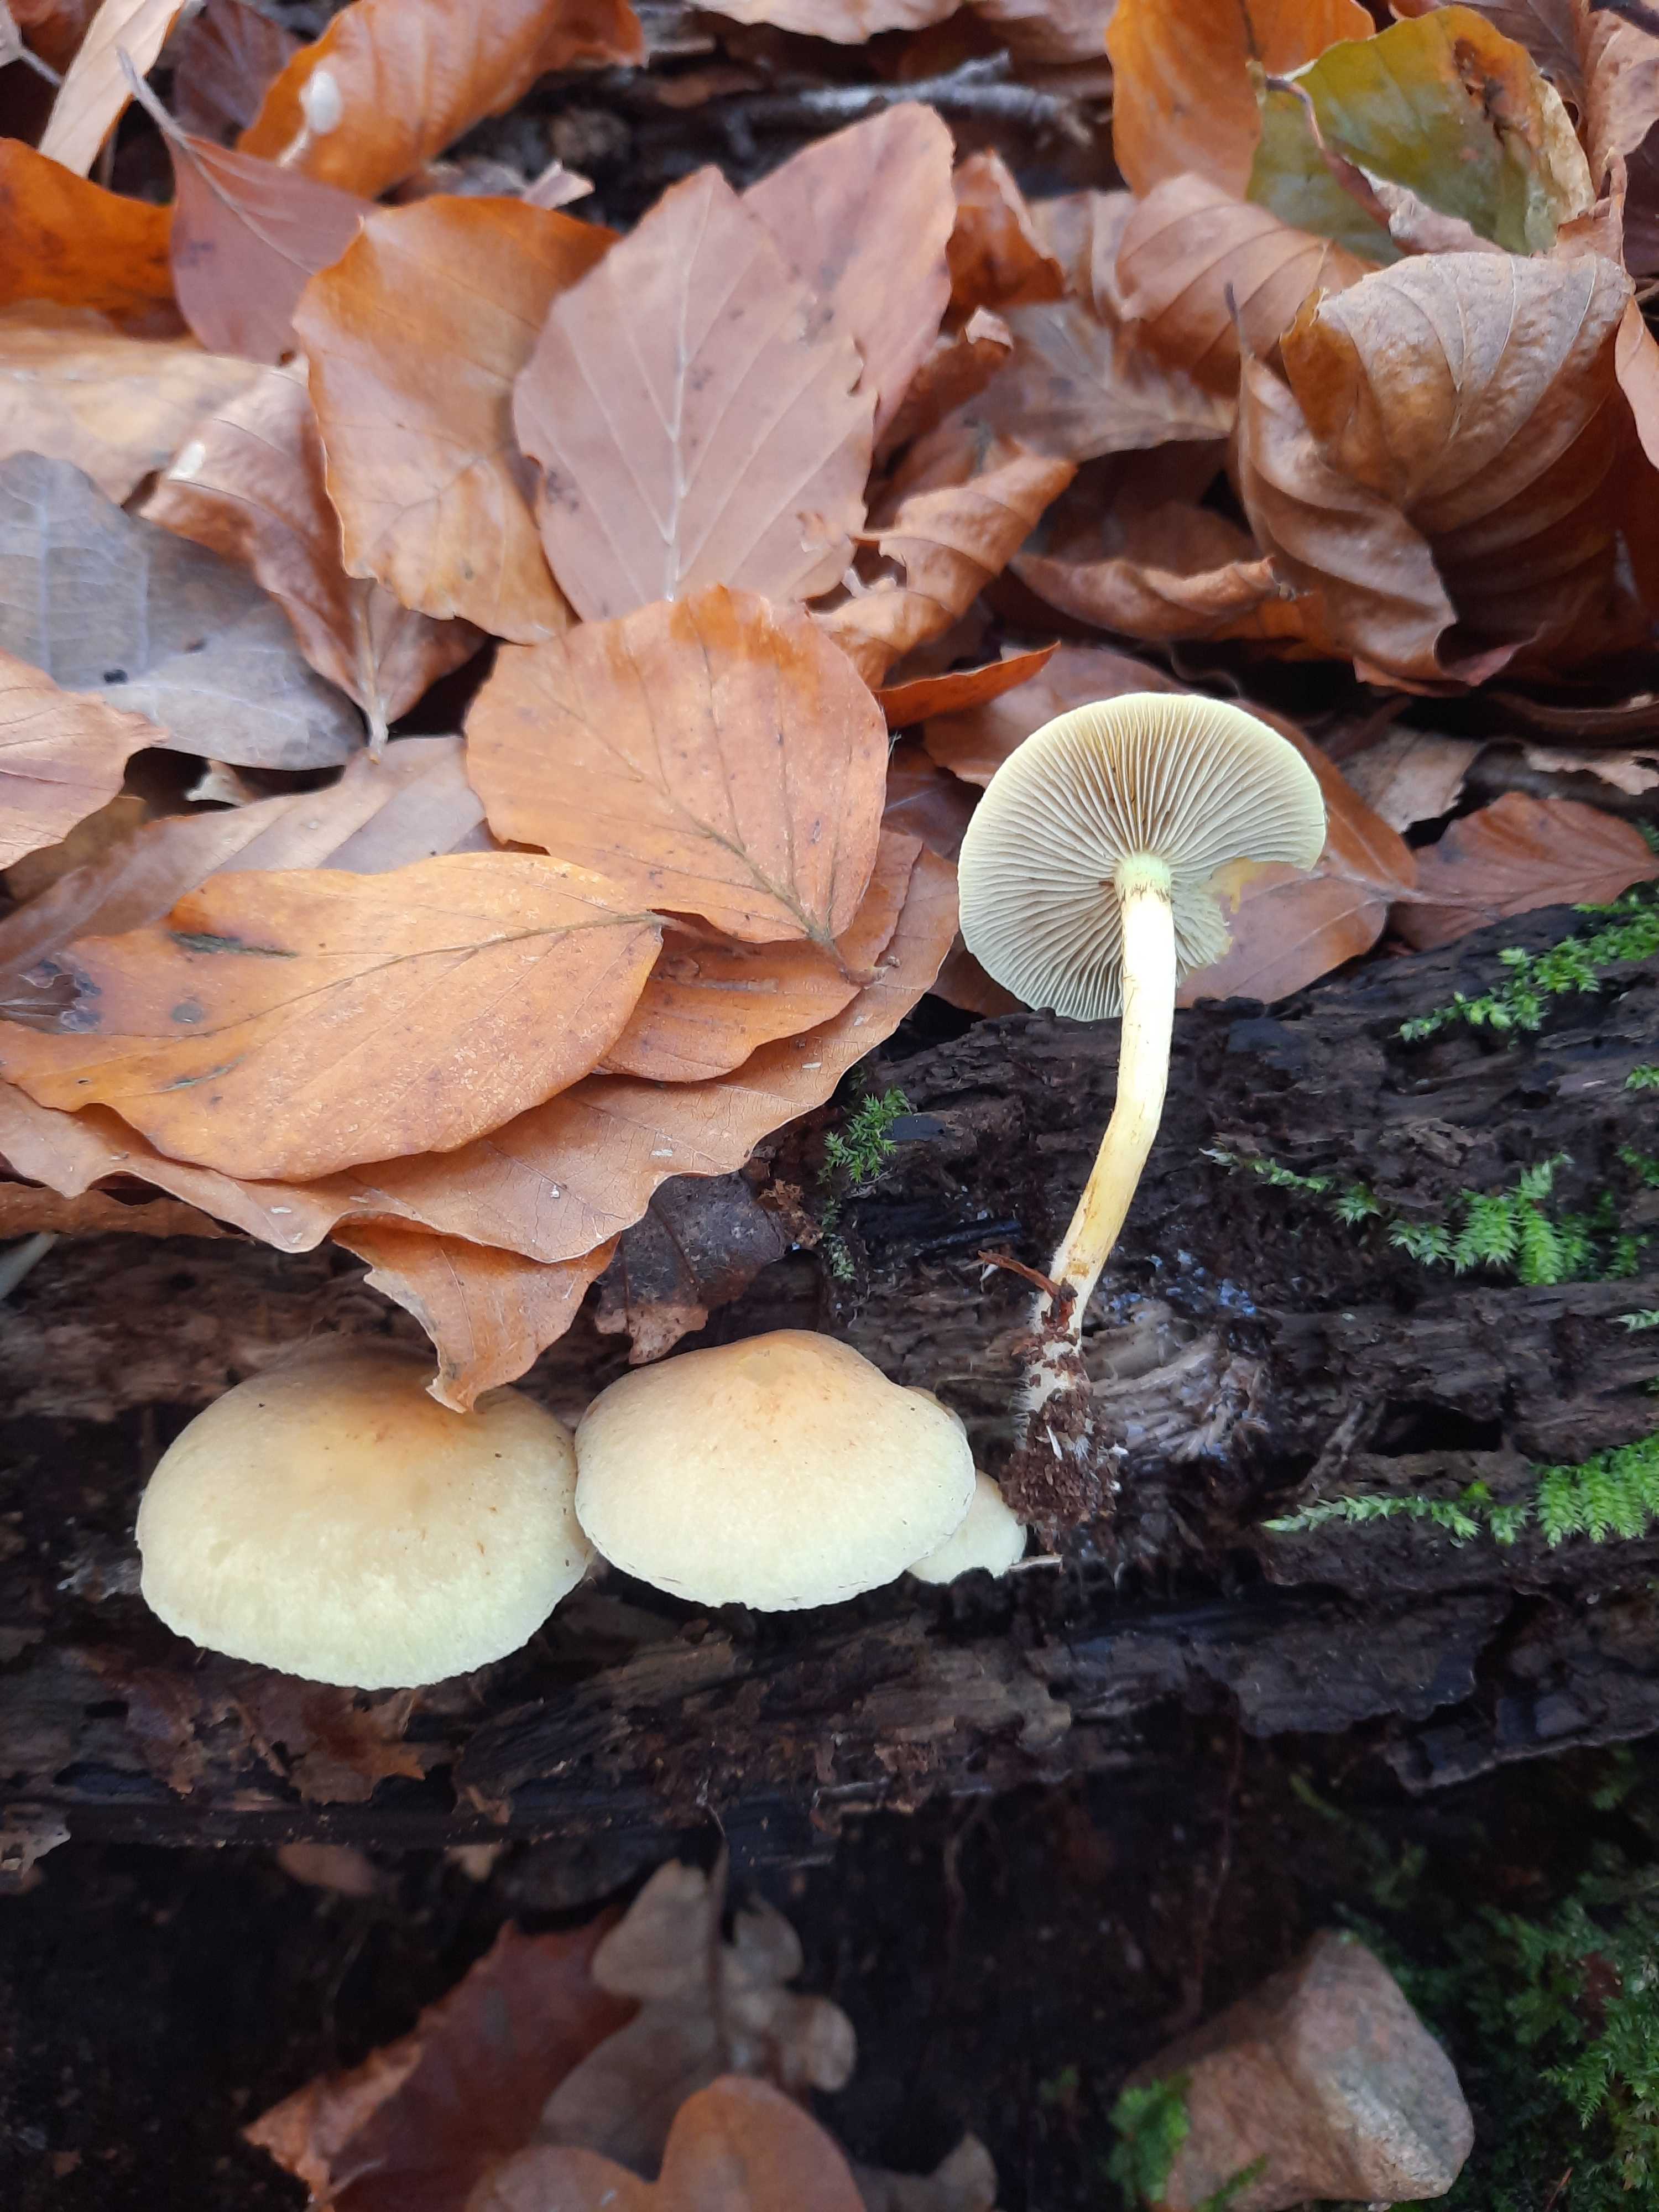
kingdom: Fungi
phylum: Basidiomycota
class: Agaricomycetes
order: Agaricales
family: Strophariaceae
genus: Hypholoma
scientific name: Hypholoma fasciculare
